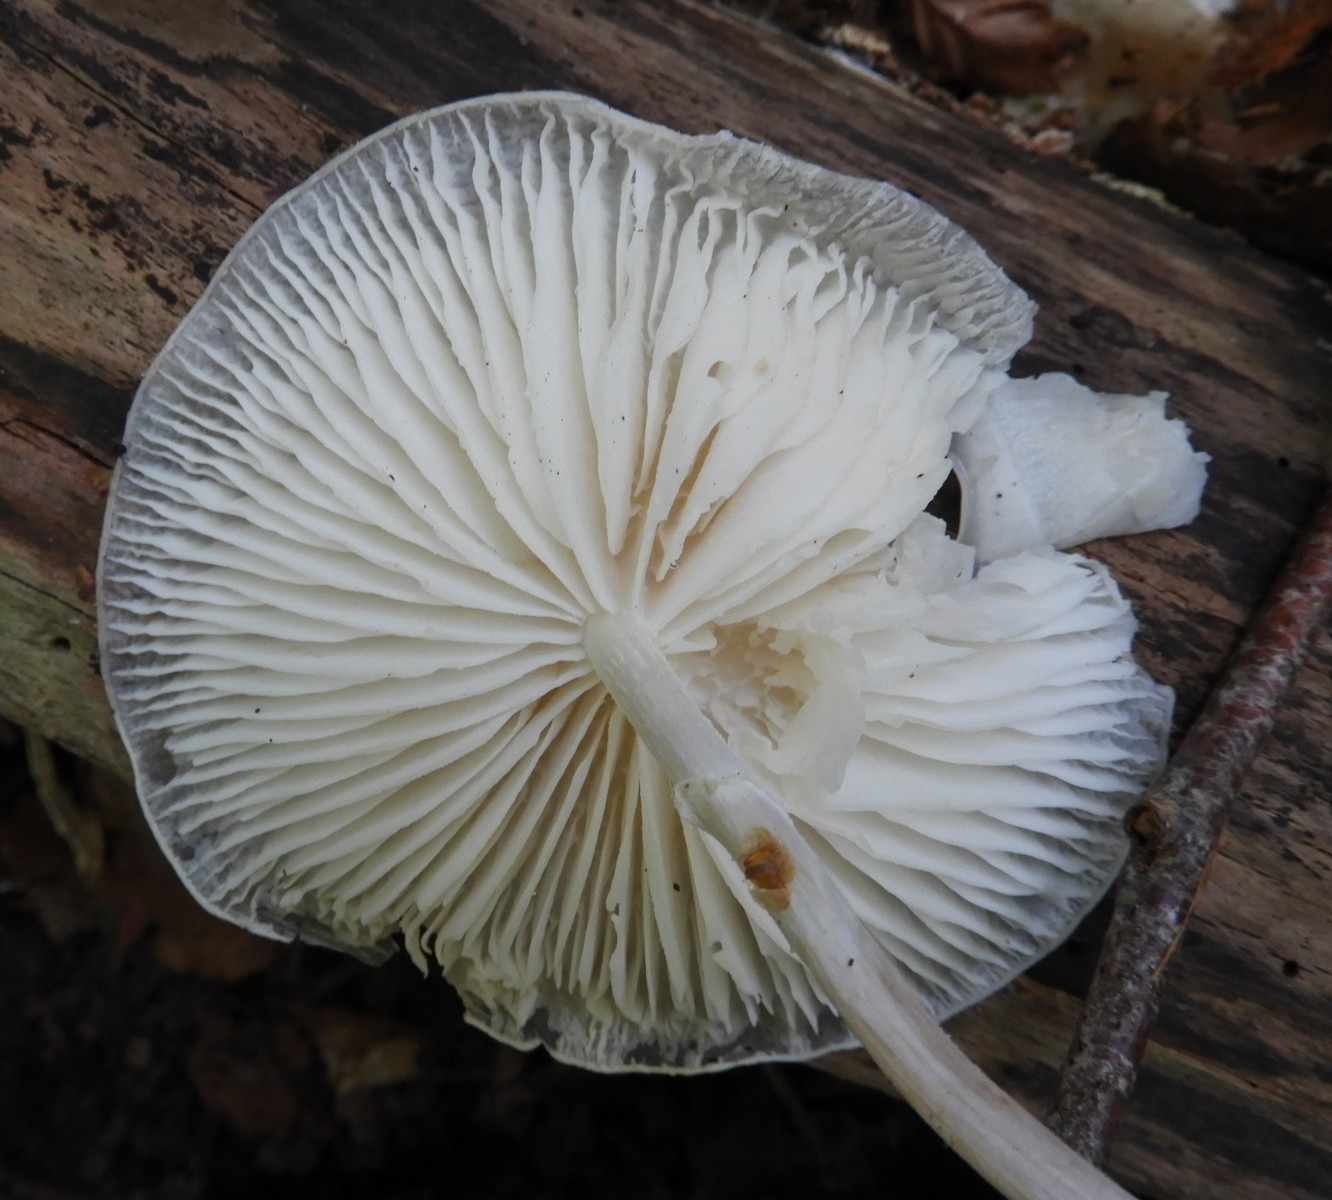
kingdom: Fungi
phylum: Basidiomycota
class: Agaricomycetes
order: Agaricales
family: Physalacriaceae
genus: Mucidula
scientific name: Mucidula mucida
